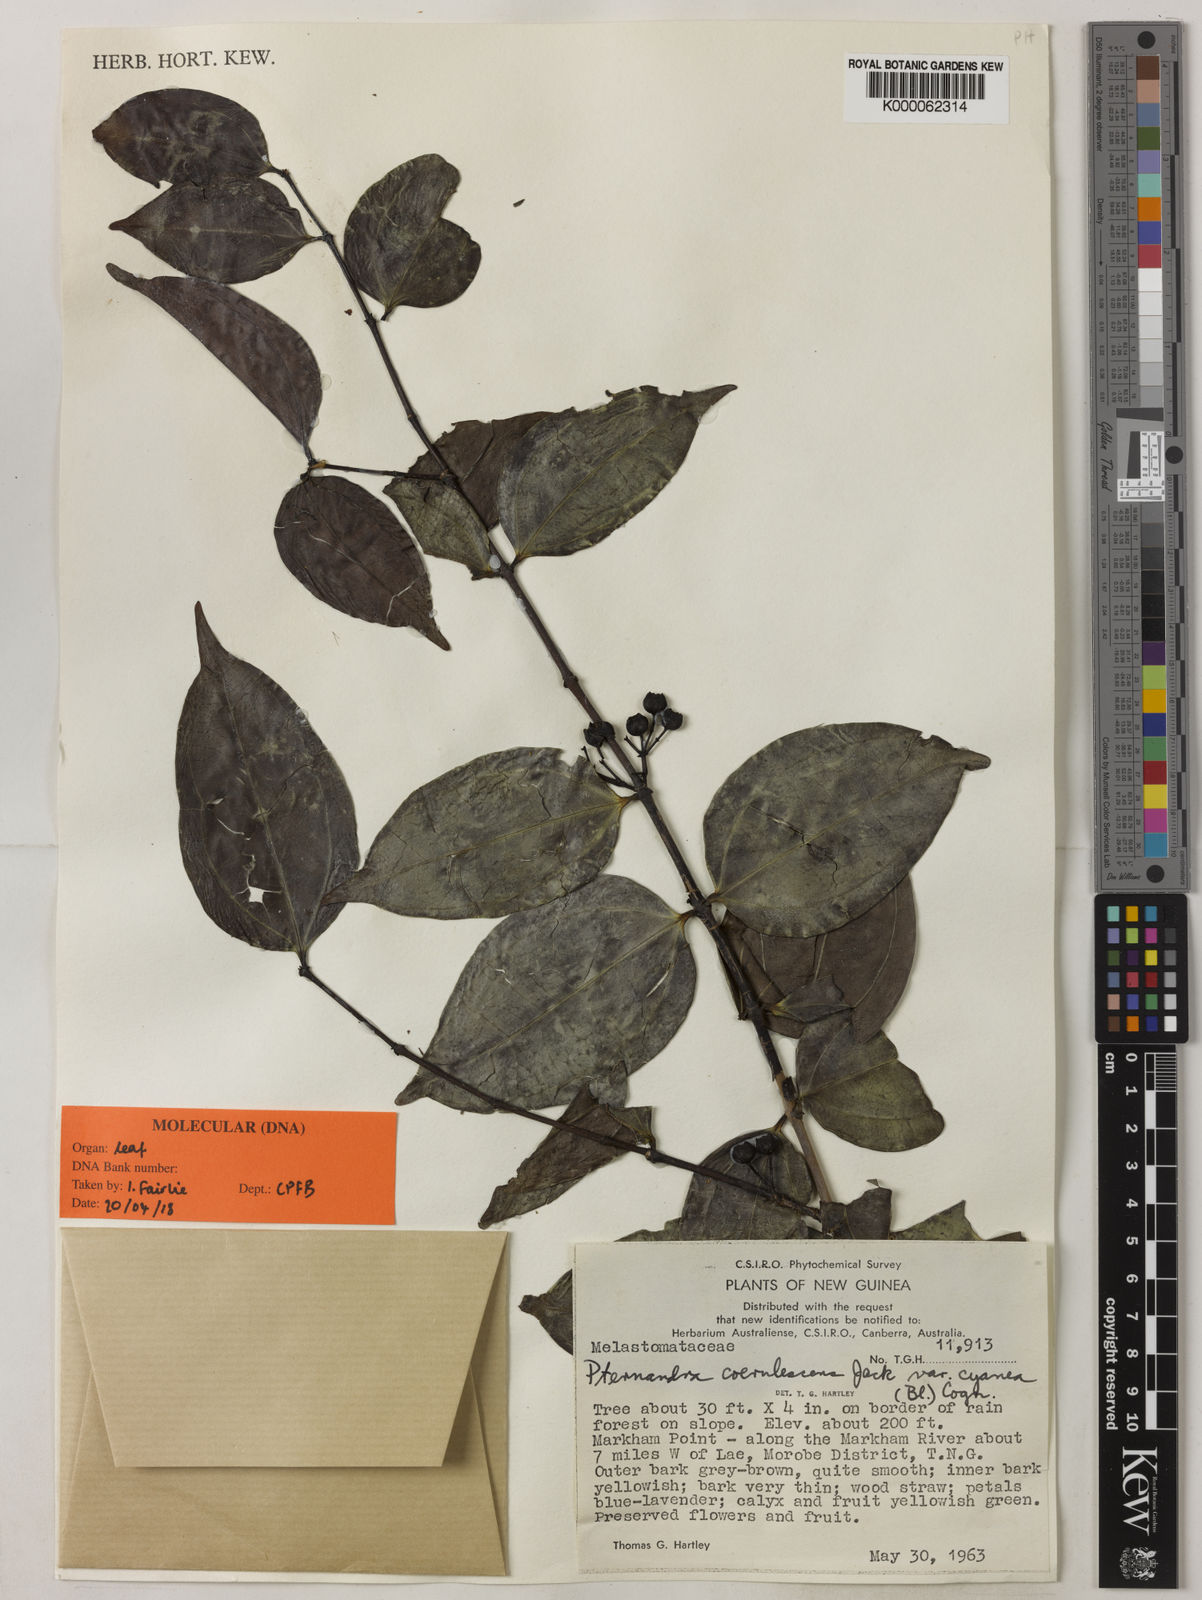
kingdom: Plantae
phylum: Tracheophyta
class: Magnoliopsida
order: Myrtales
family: Melastomataceae
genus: Pternandra
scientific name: Pternandra coerulescens
